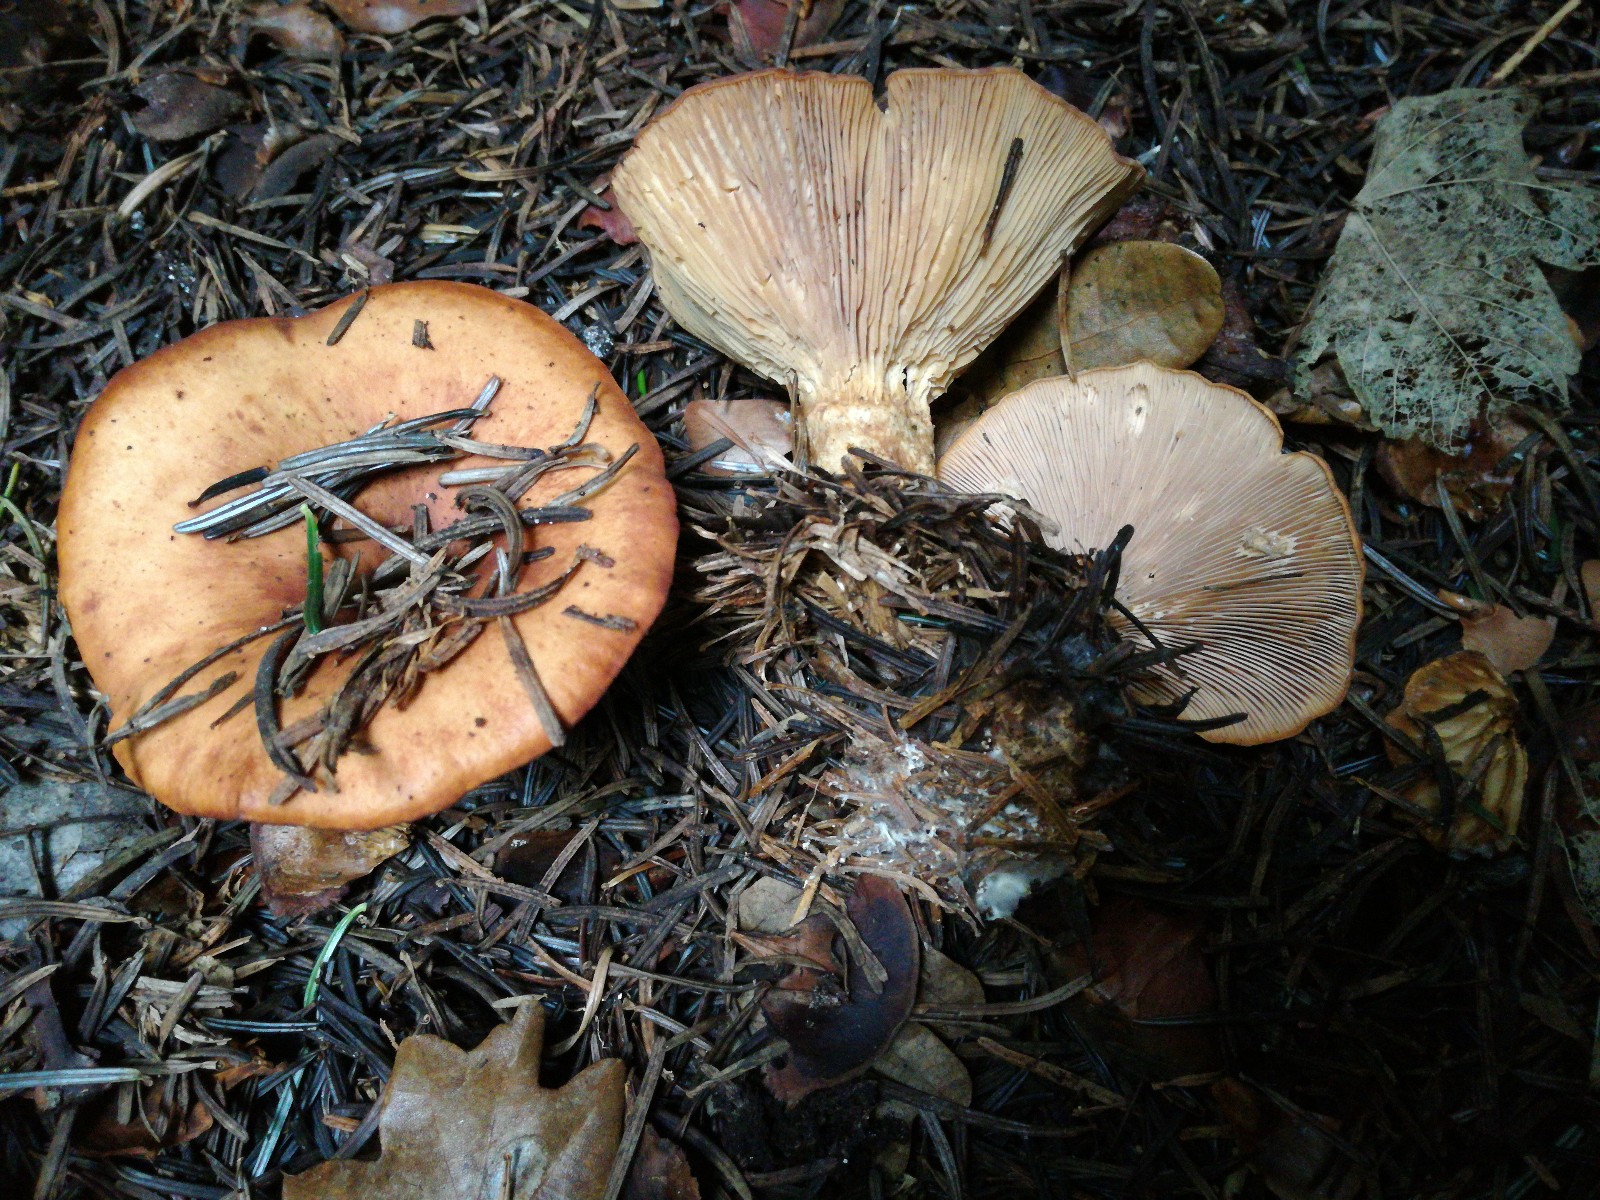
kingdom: Fungi
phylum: Basidiomycota
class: Agaricomycetes
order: Agaricales
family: Tricholomataceae
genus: Paralepista
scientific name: Paralepista flaccida
